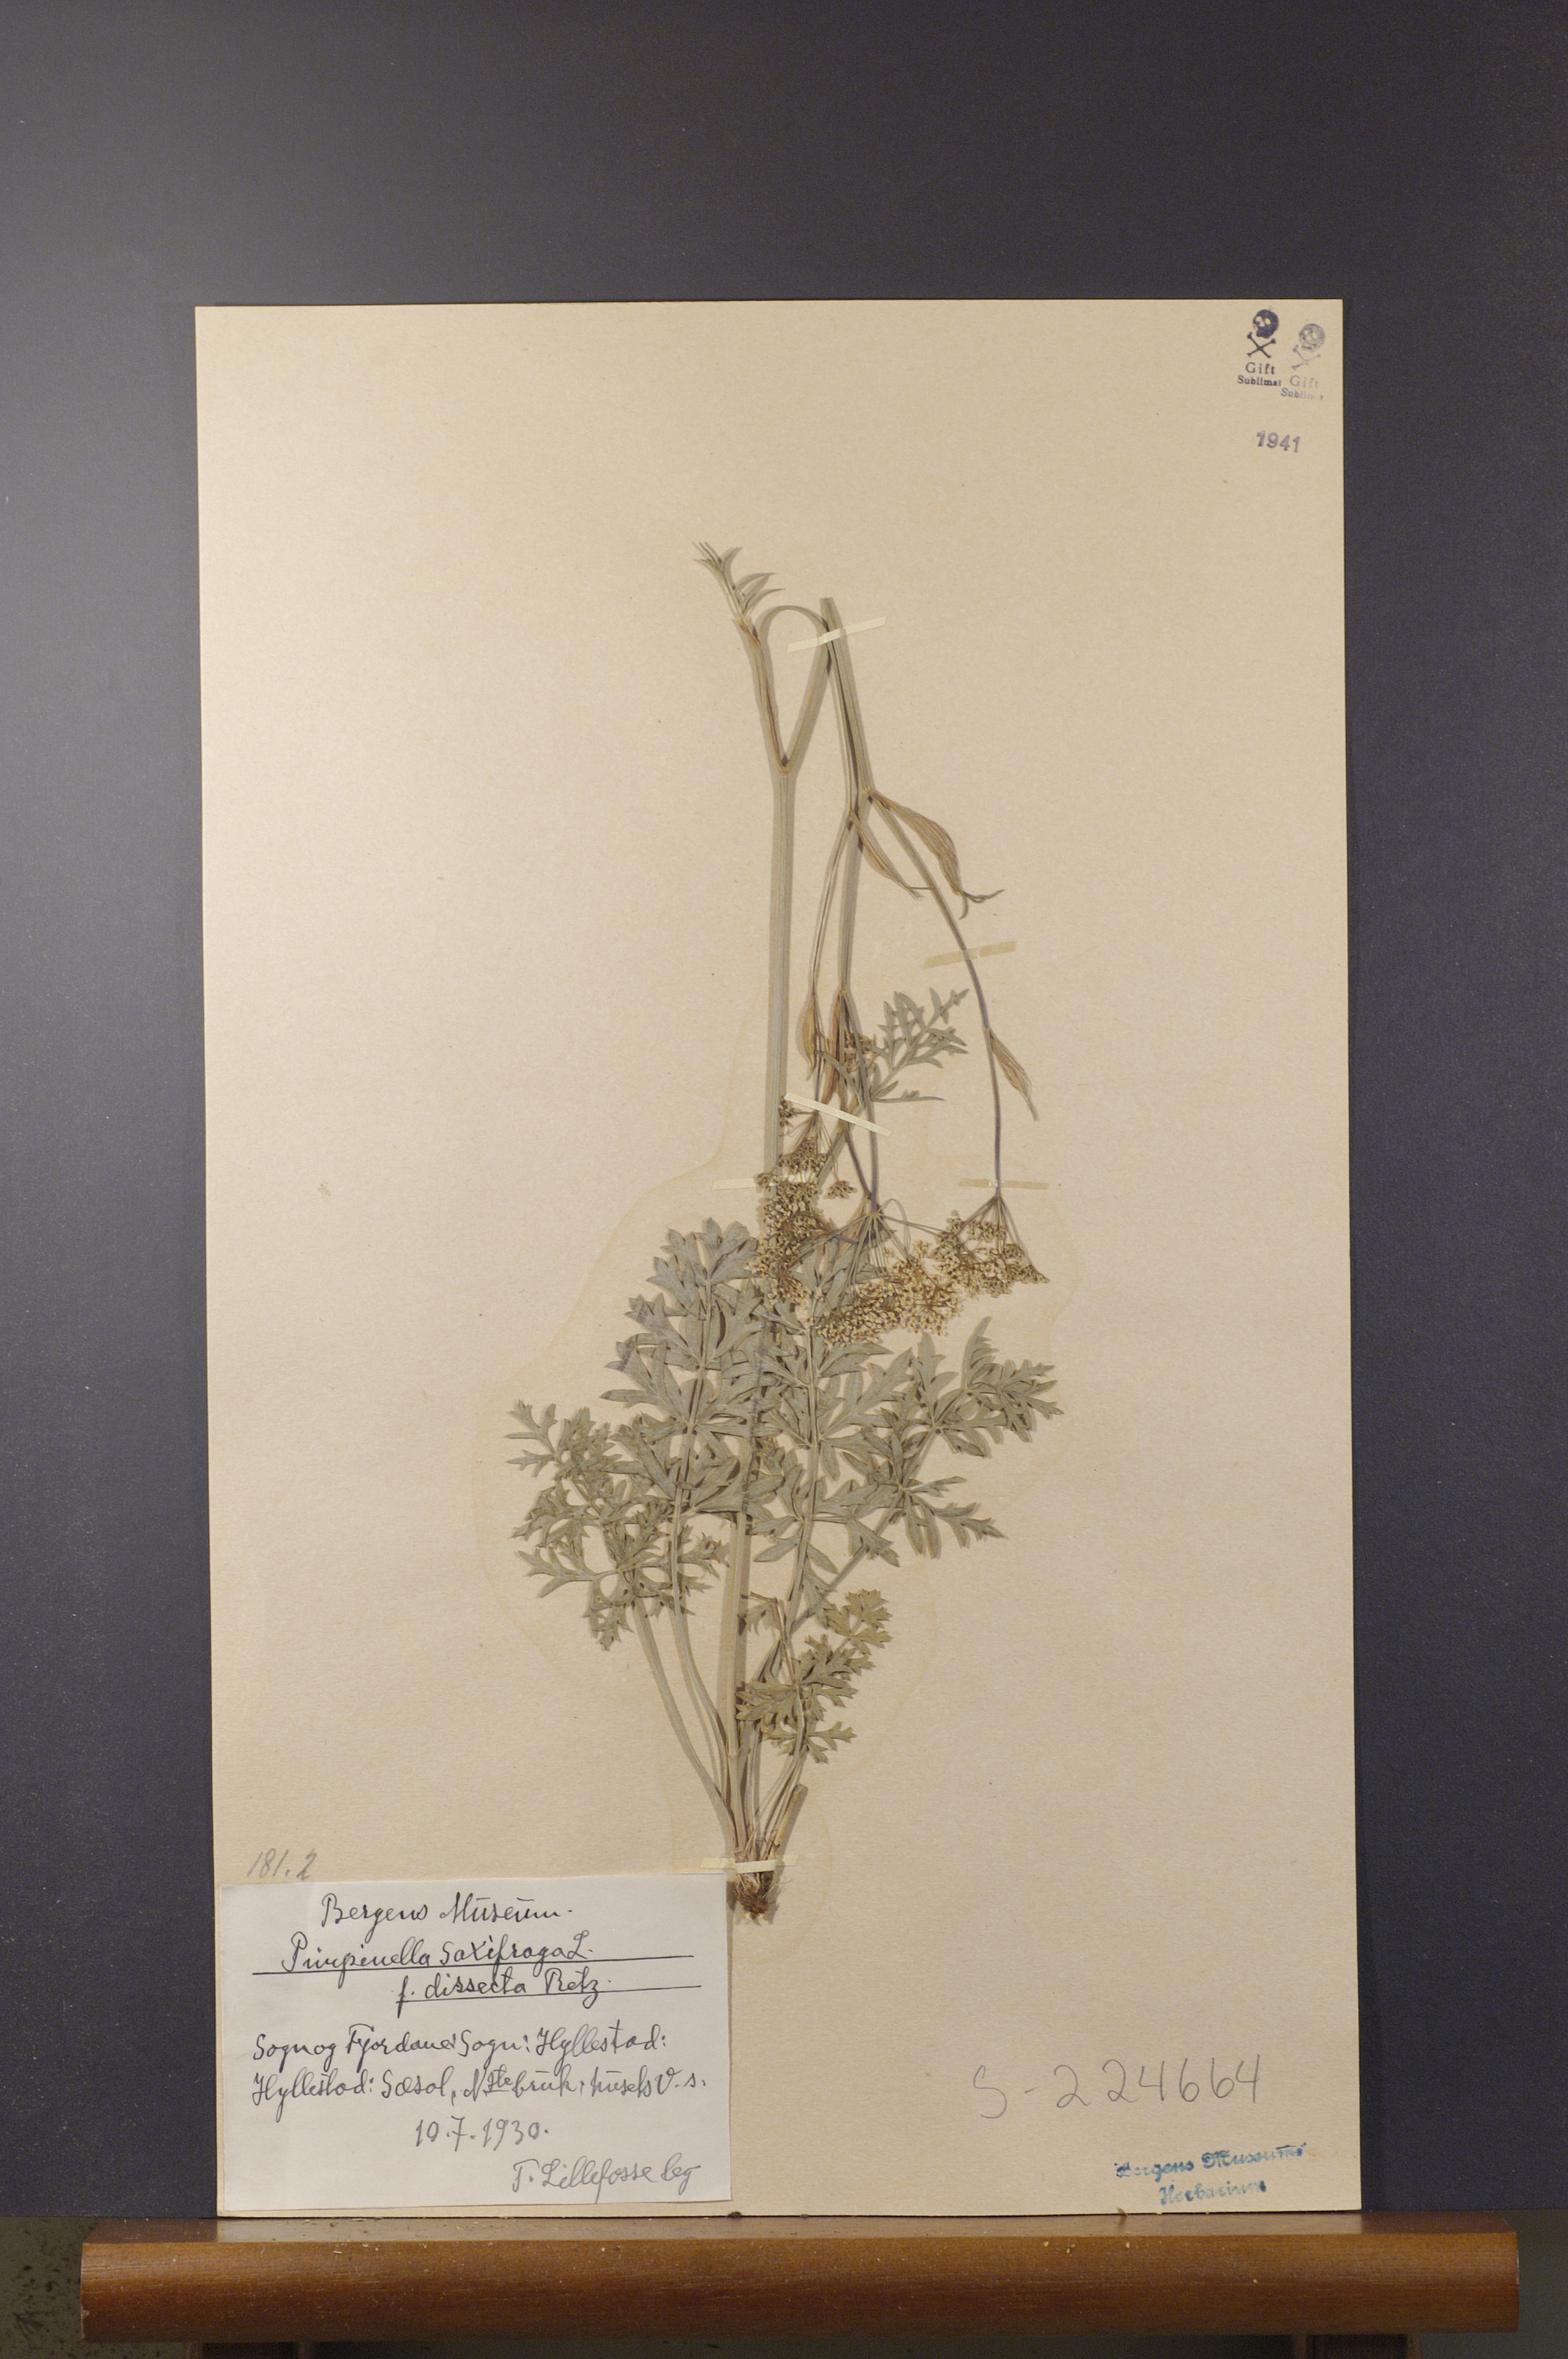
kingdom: Plantae
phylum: Tracheophyta
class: Magnoliopsida
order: Apiales
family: Apiaceae
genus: Pimpinella
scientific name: Pimpinella saxifraga
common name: Burnet-saxifrage
